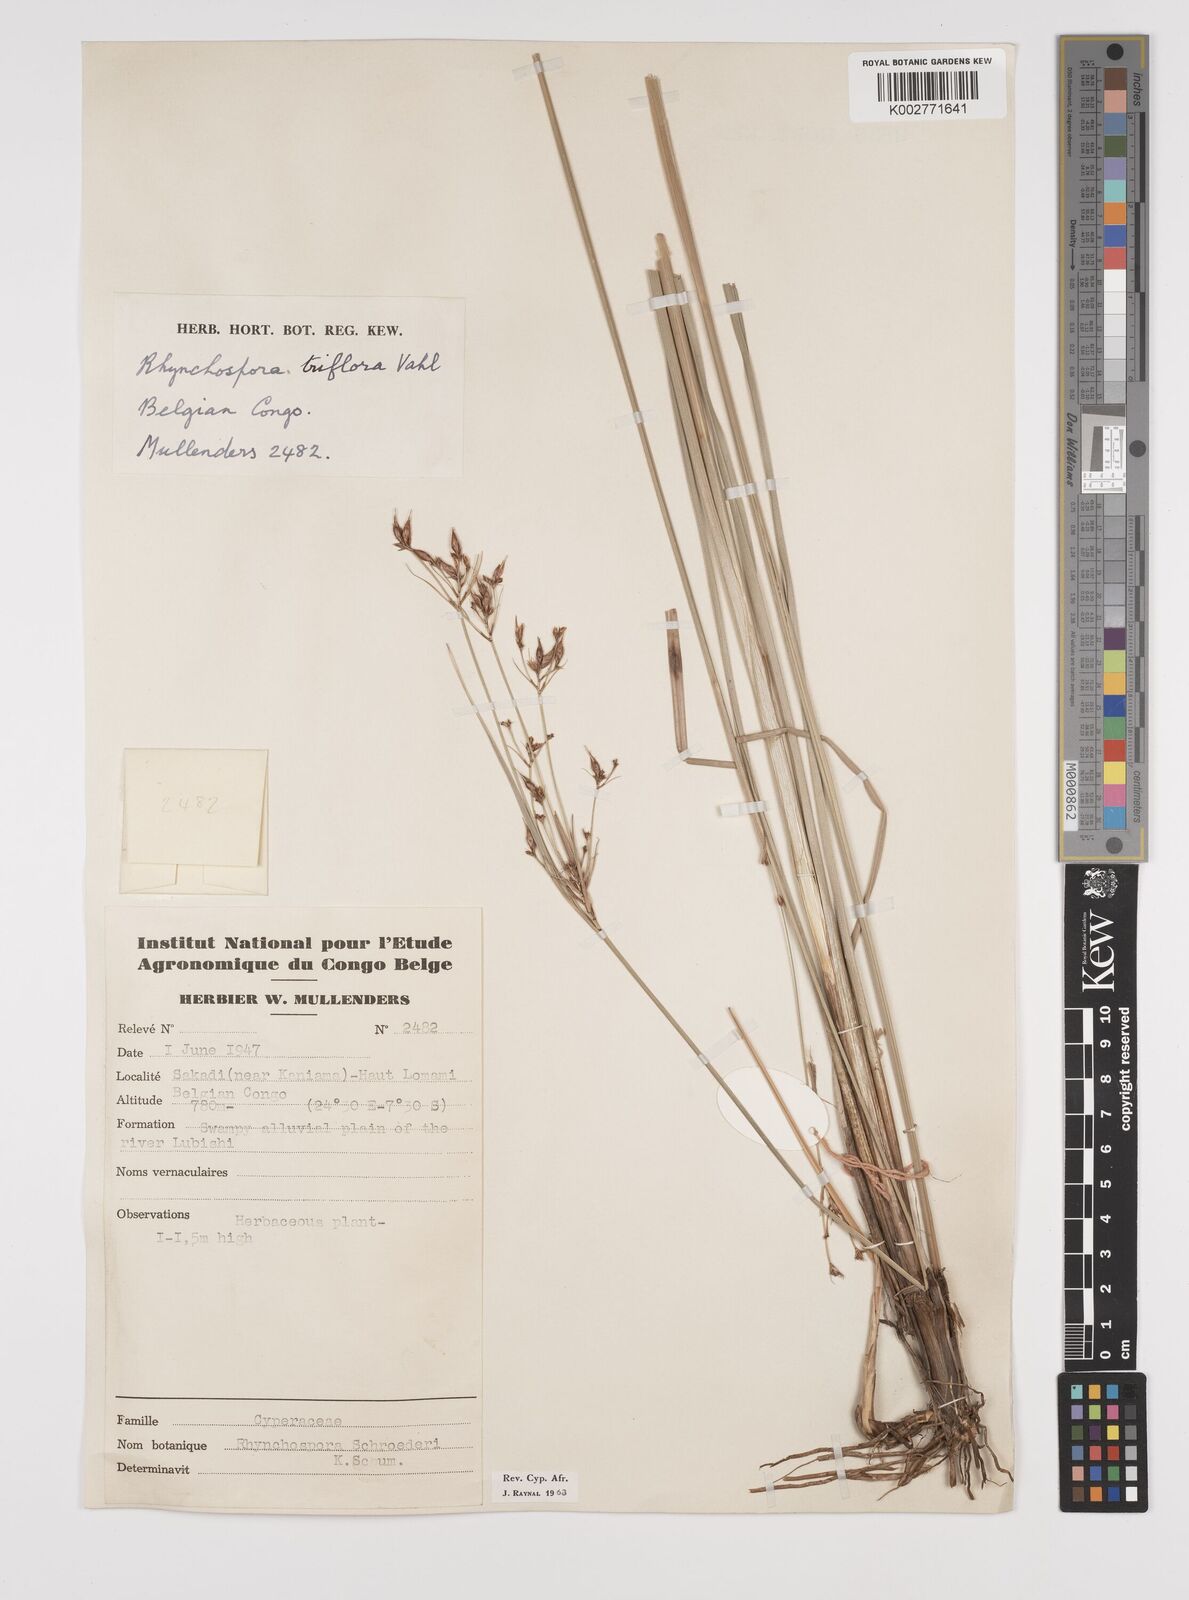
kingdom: Plantae
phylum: Tracheophyta
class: Liliopsida
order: Poales
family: Cyperaceae
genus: Rhynchospora
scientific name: Rhynchospora triflora
